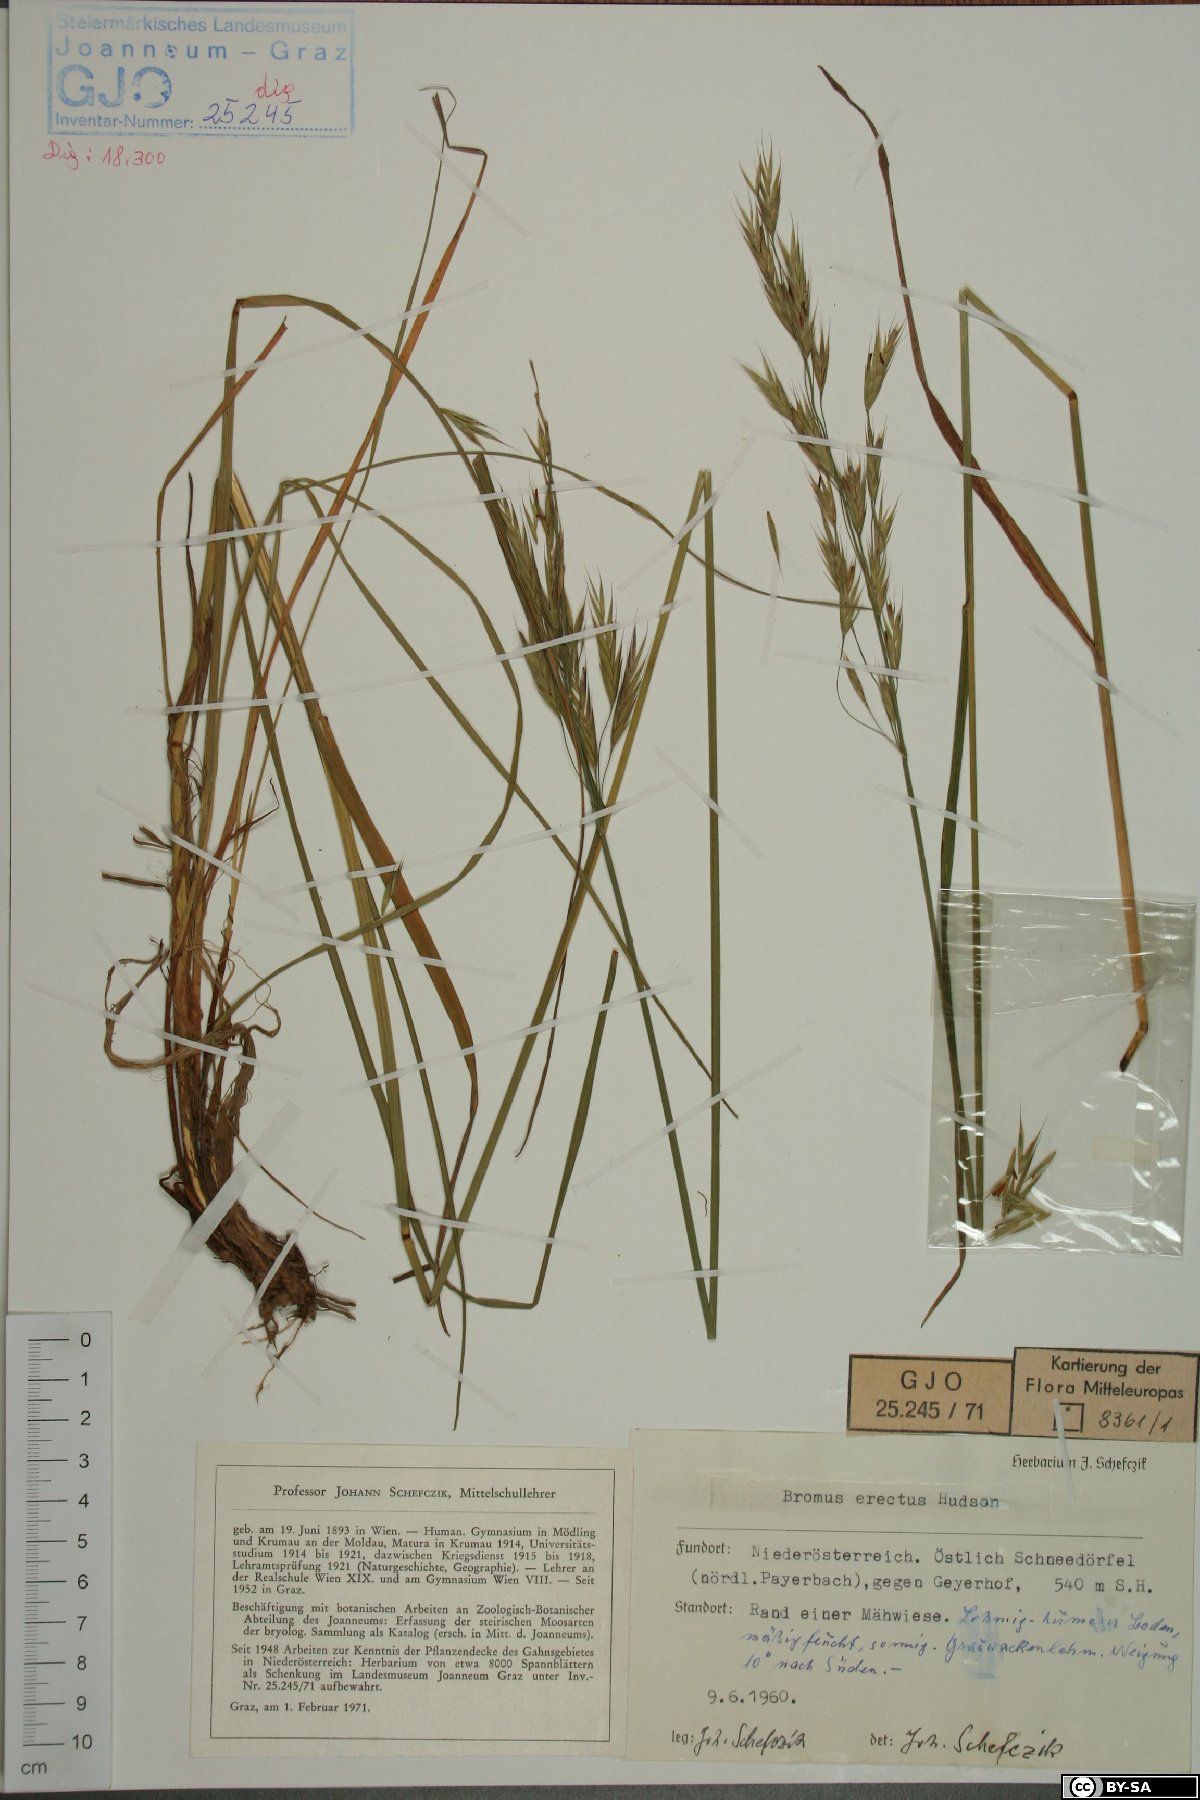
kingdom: Plantae
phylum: Tracheophyta
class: Liliopsida
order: Poales
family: Poaceae
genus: Bromus
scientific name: Bromus erectus
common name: Erect brome
